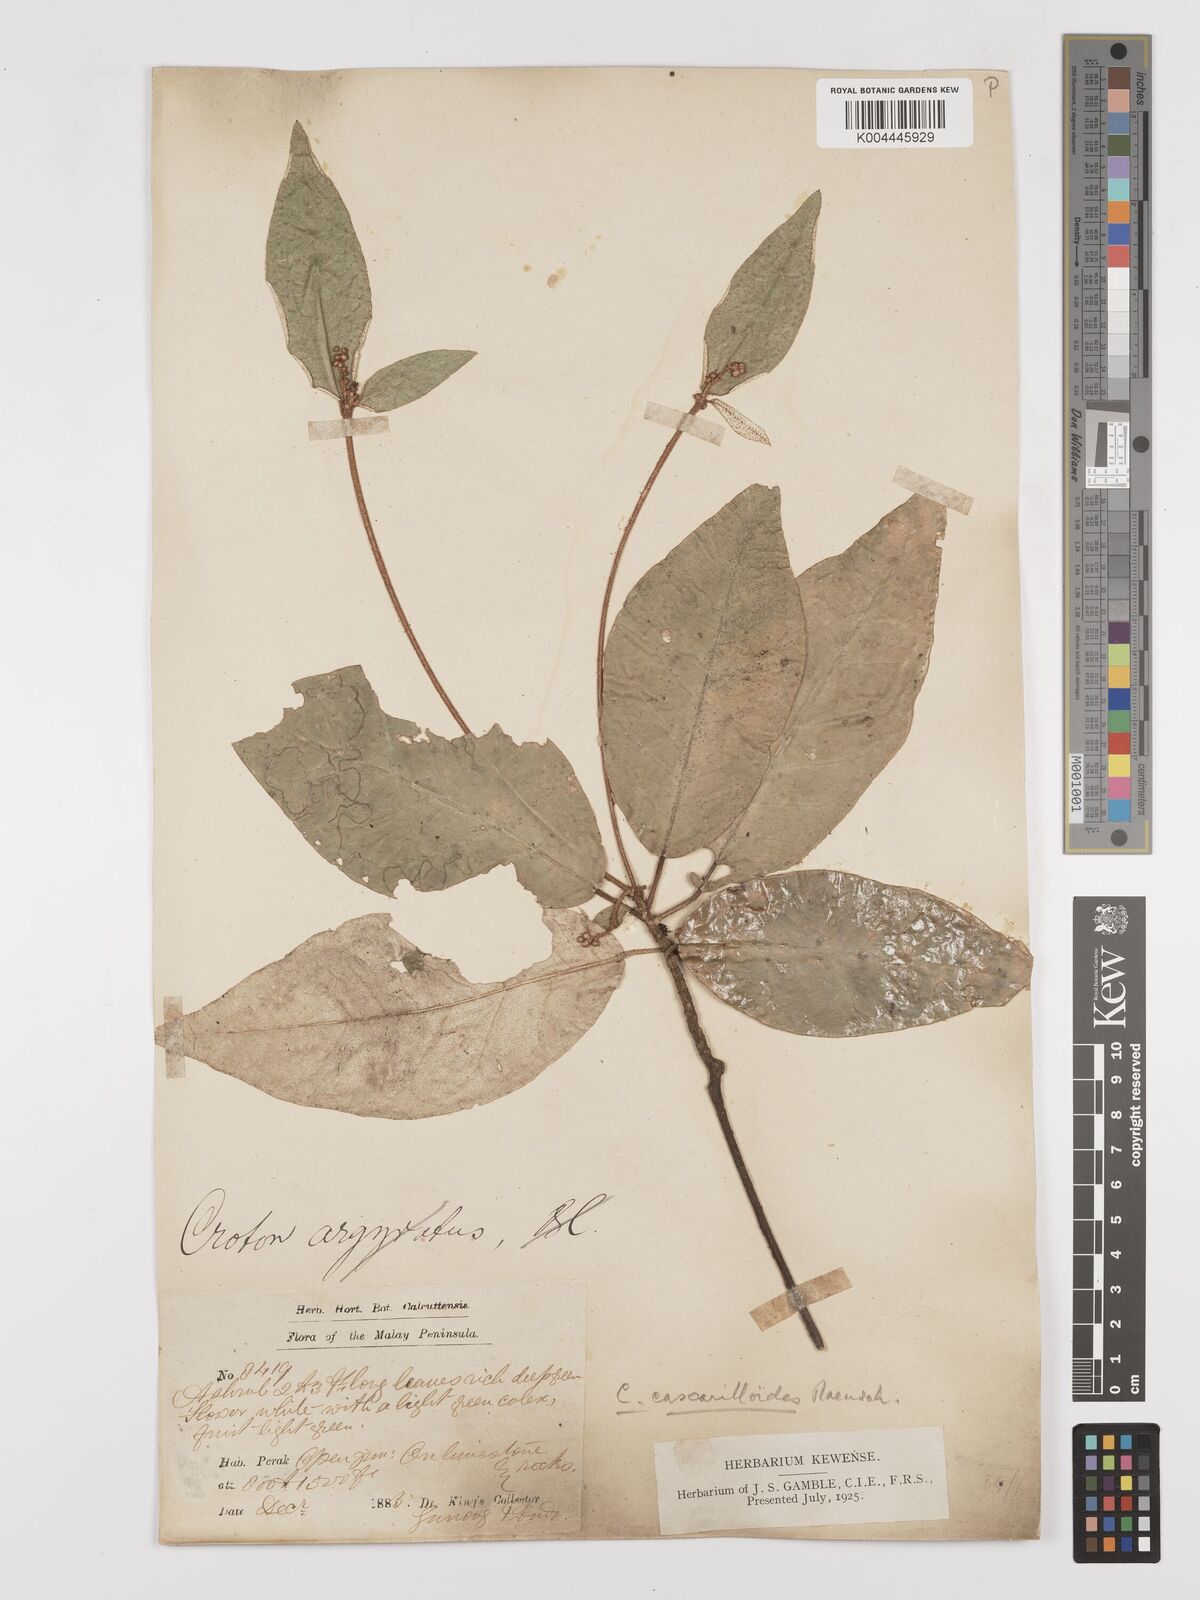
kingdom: Plantae
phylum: Tracheophyta
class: Magnoliopsida
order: Malpighiales
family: Euphorbiaceae
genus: Croton
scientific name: Croton cascarilloides
